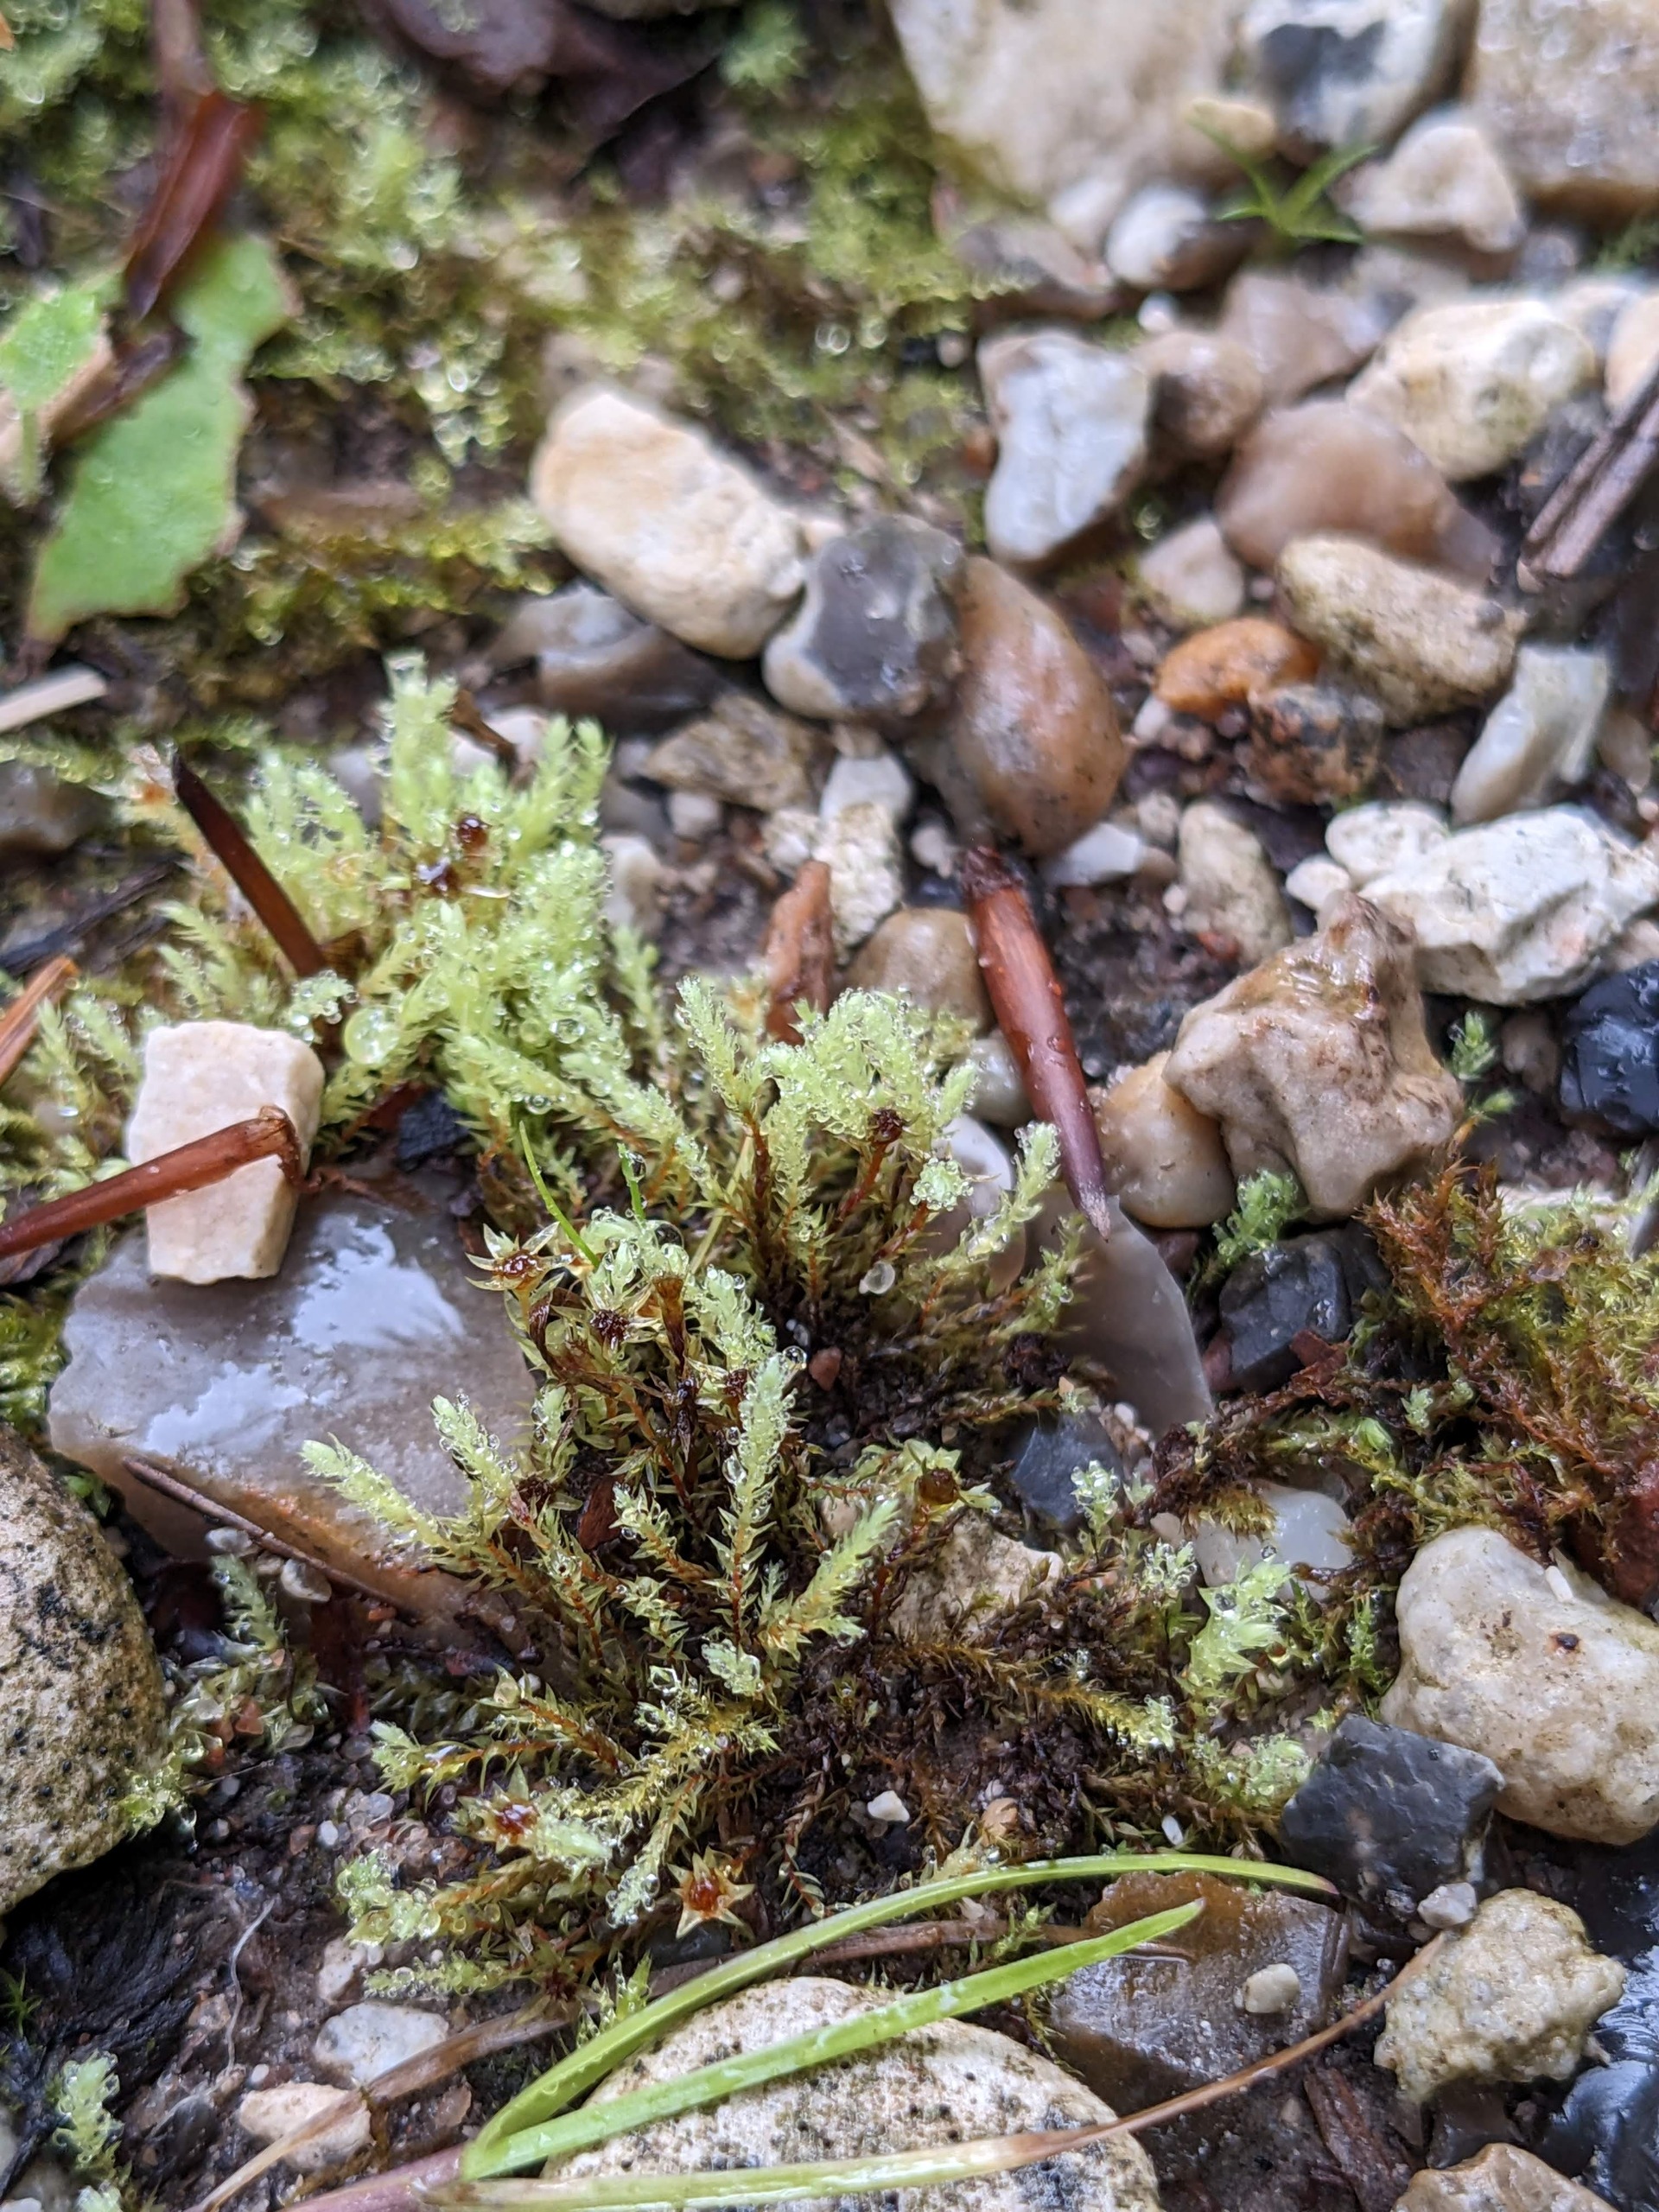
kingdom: Plantae
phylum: Bryophyta
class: Bryopsida
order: Bryales
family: Mniaceae
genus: Pohlia
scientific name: Pohlia wahlenbergii
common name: Lysegrøn voksmos
